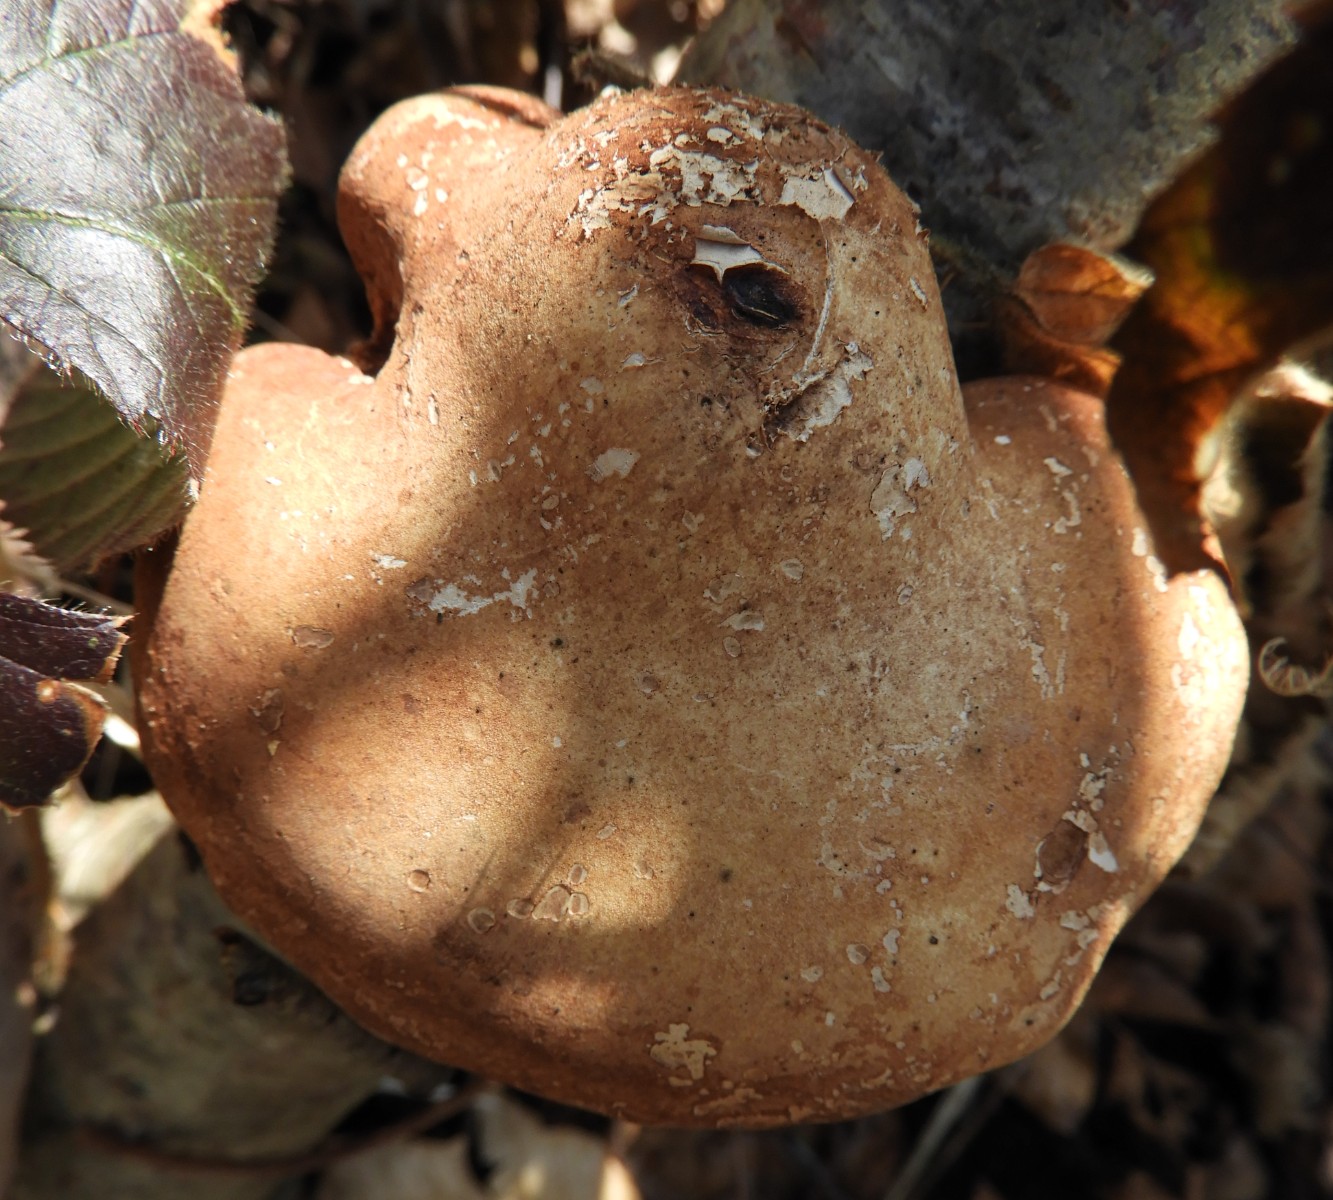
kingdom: Fungi
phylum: Basidiomycota
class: Agaricomycetes
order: Polyporales
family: Fomitopsidaceae
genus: Fomitopsis
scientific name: Fomitopsis betulina
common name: birkeporesvamp
